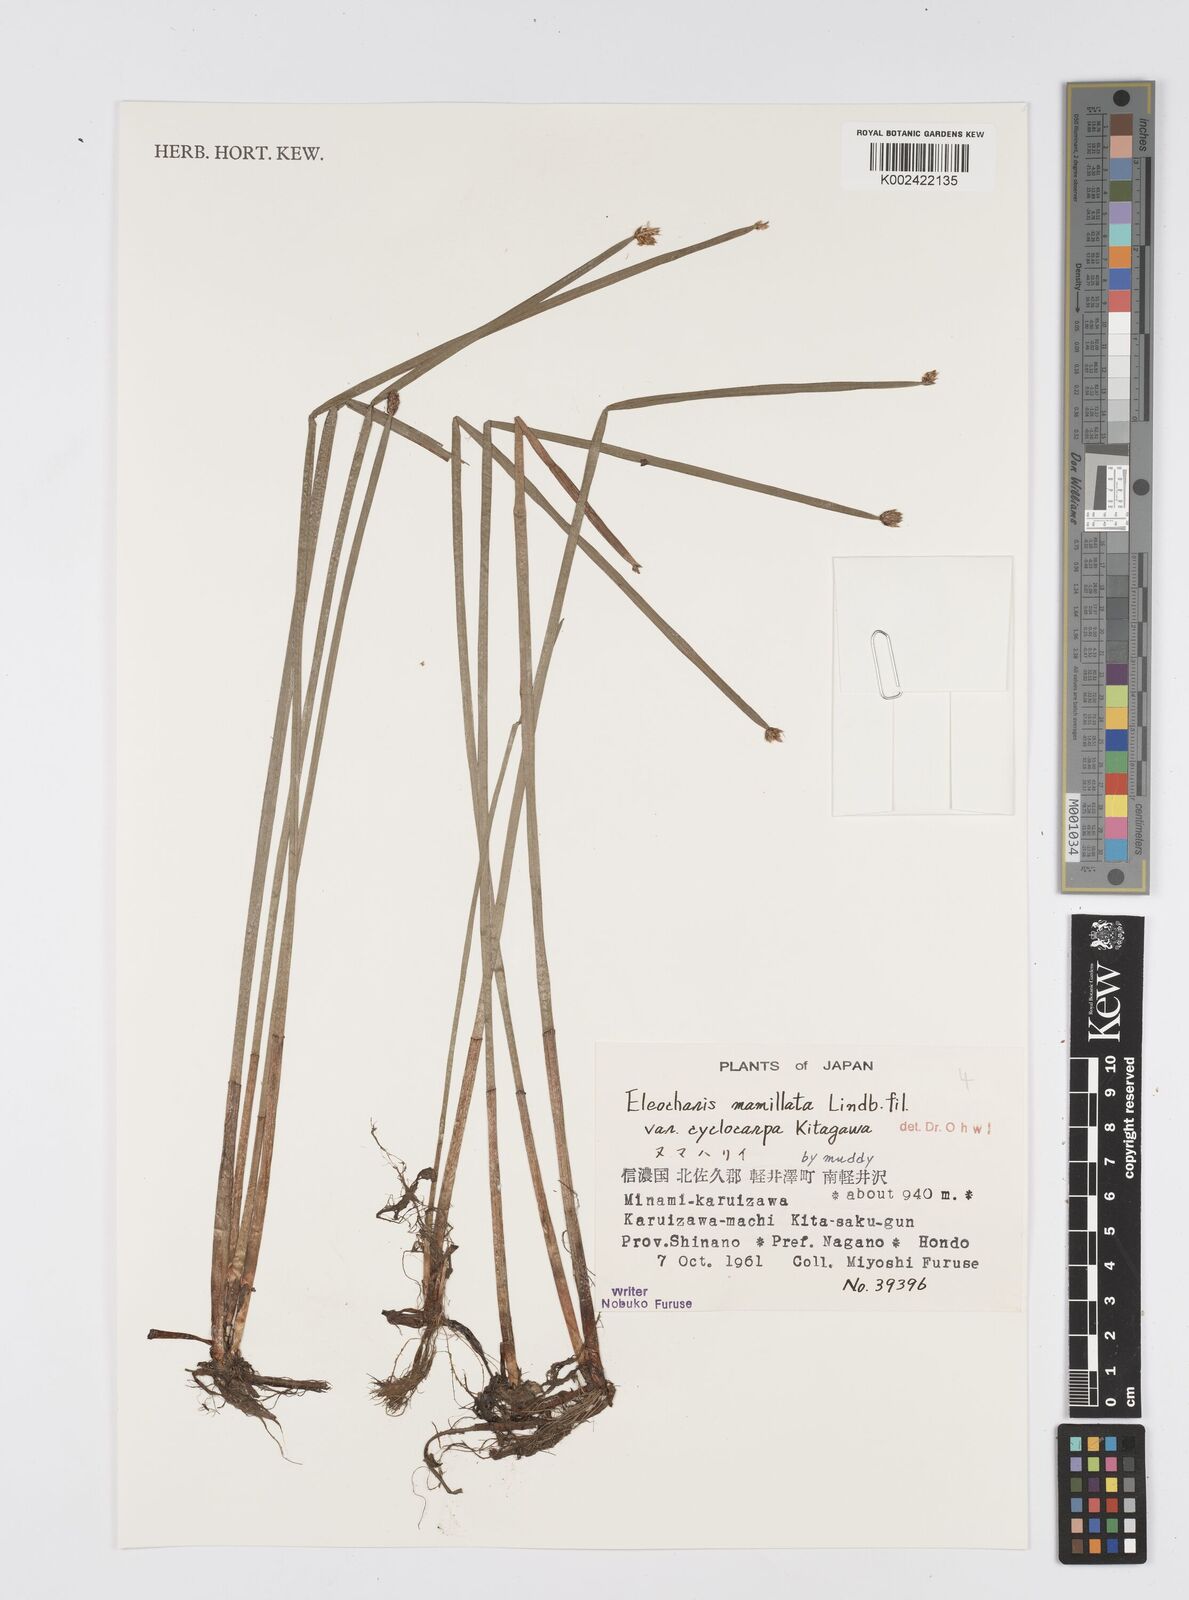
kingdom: Plantae
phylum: Tracheophyta
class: Liliopsida
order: Poales
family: Cyperaceae
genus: Eleocharis
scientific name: Eleocharis mamillata
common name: Northern spike-rush
